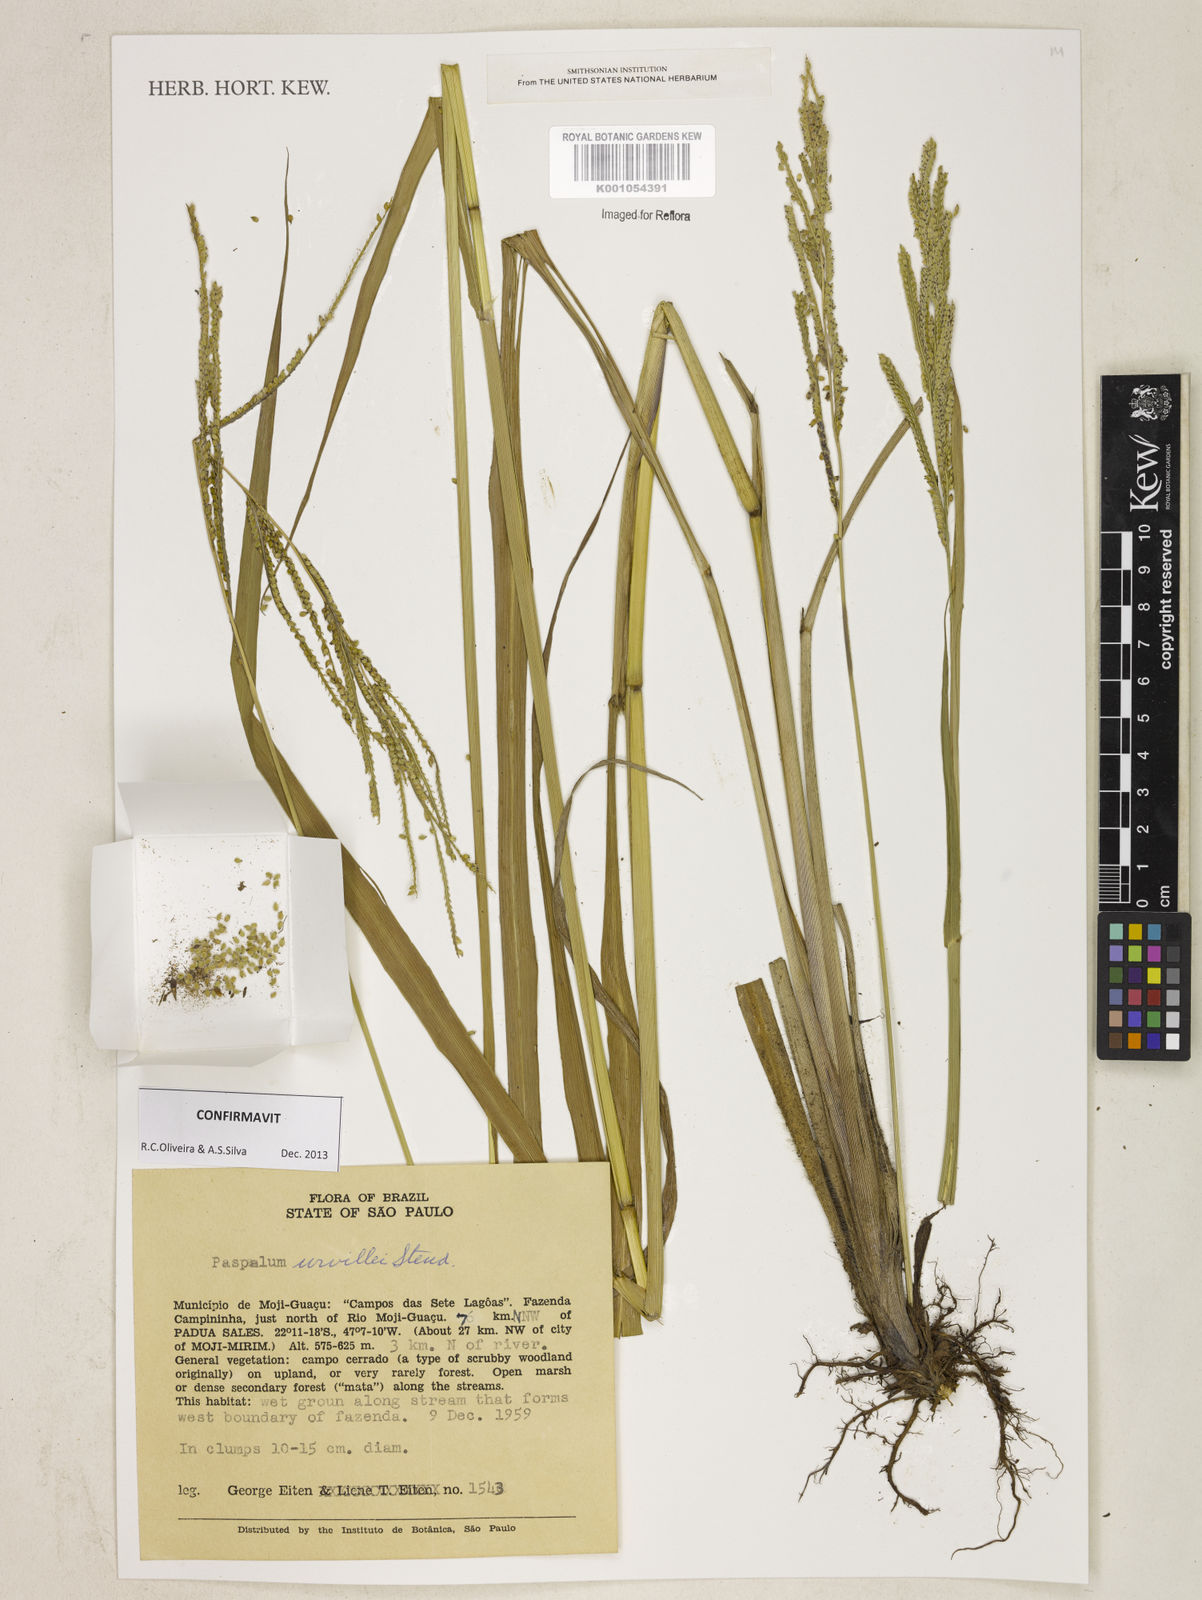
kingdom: Plantae
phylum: Tracheophyta
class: Liliopsida
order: Poales
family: Poaceae
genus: Paspalum
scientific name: Paspalum urvillei
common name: Vasey's grass
